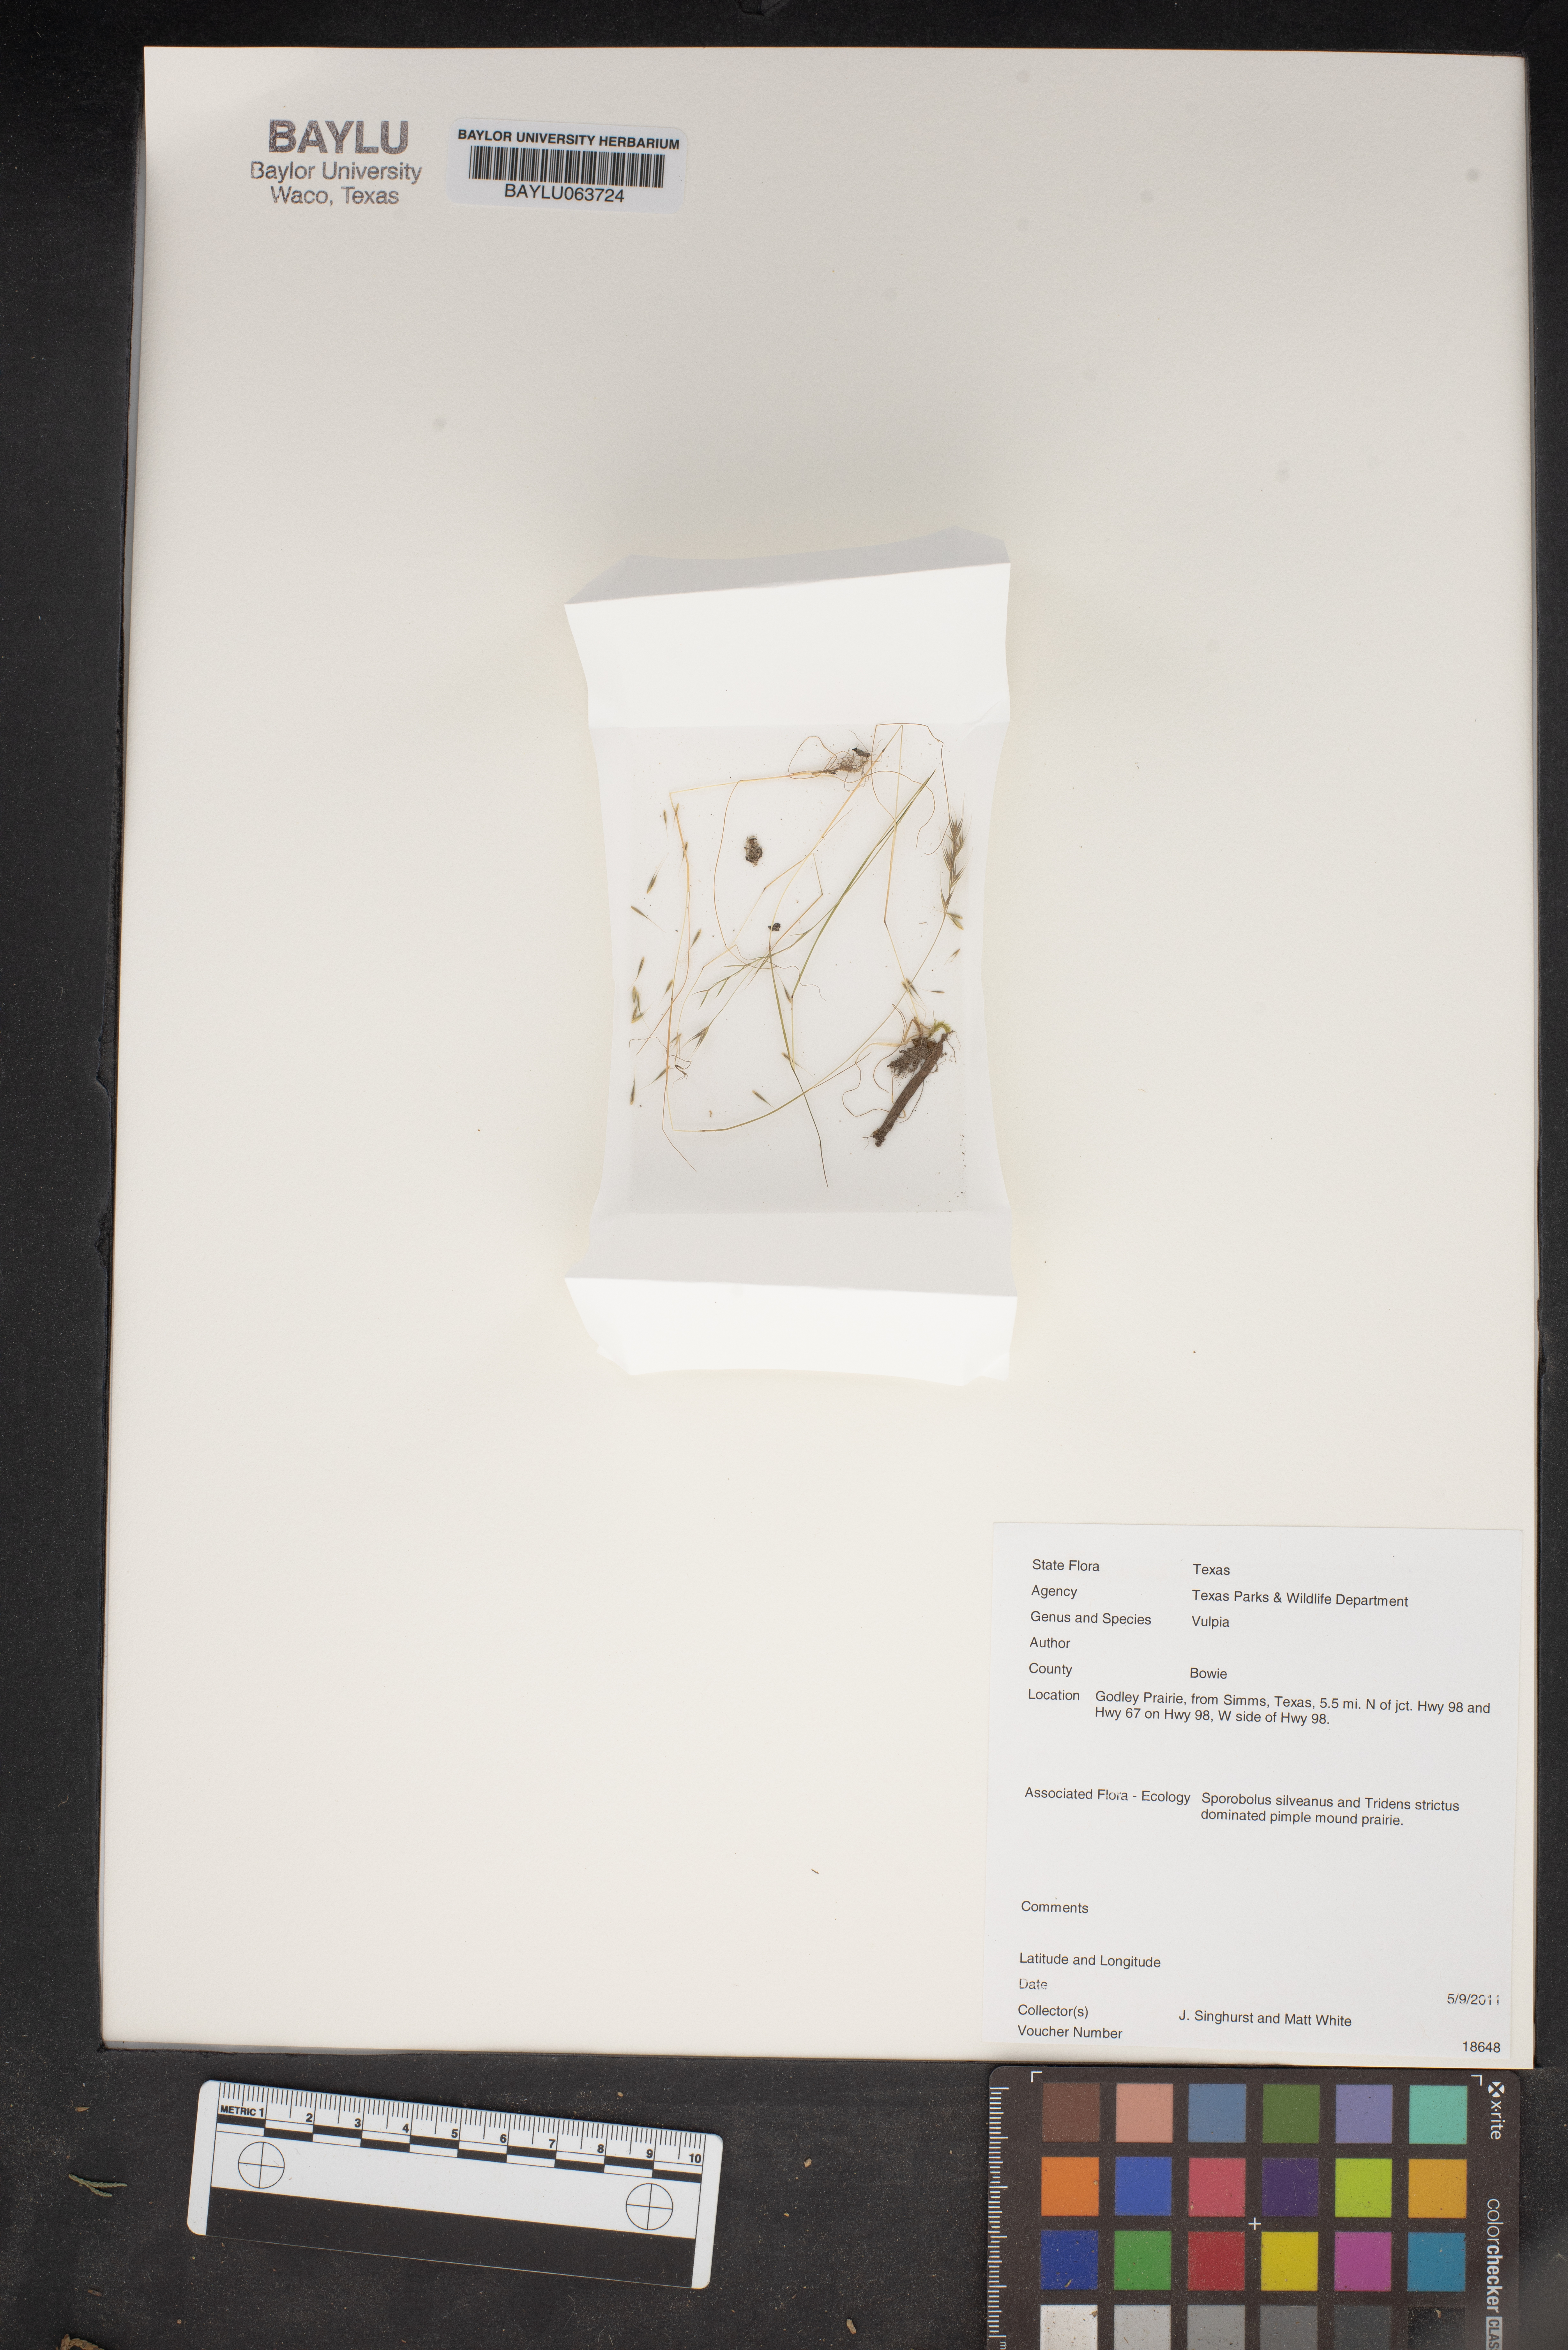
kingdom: Plantae
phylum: Tracheophyta
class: Liliopsida
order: Poales
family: Poaceae
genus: Festuca
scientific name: Festuca
